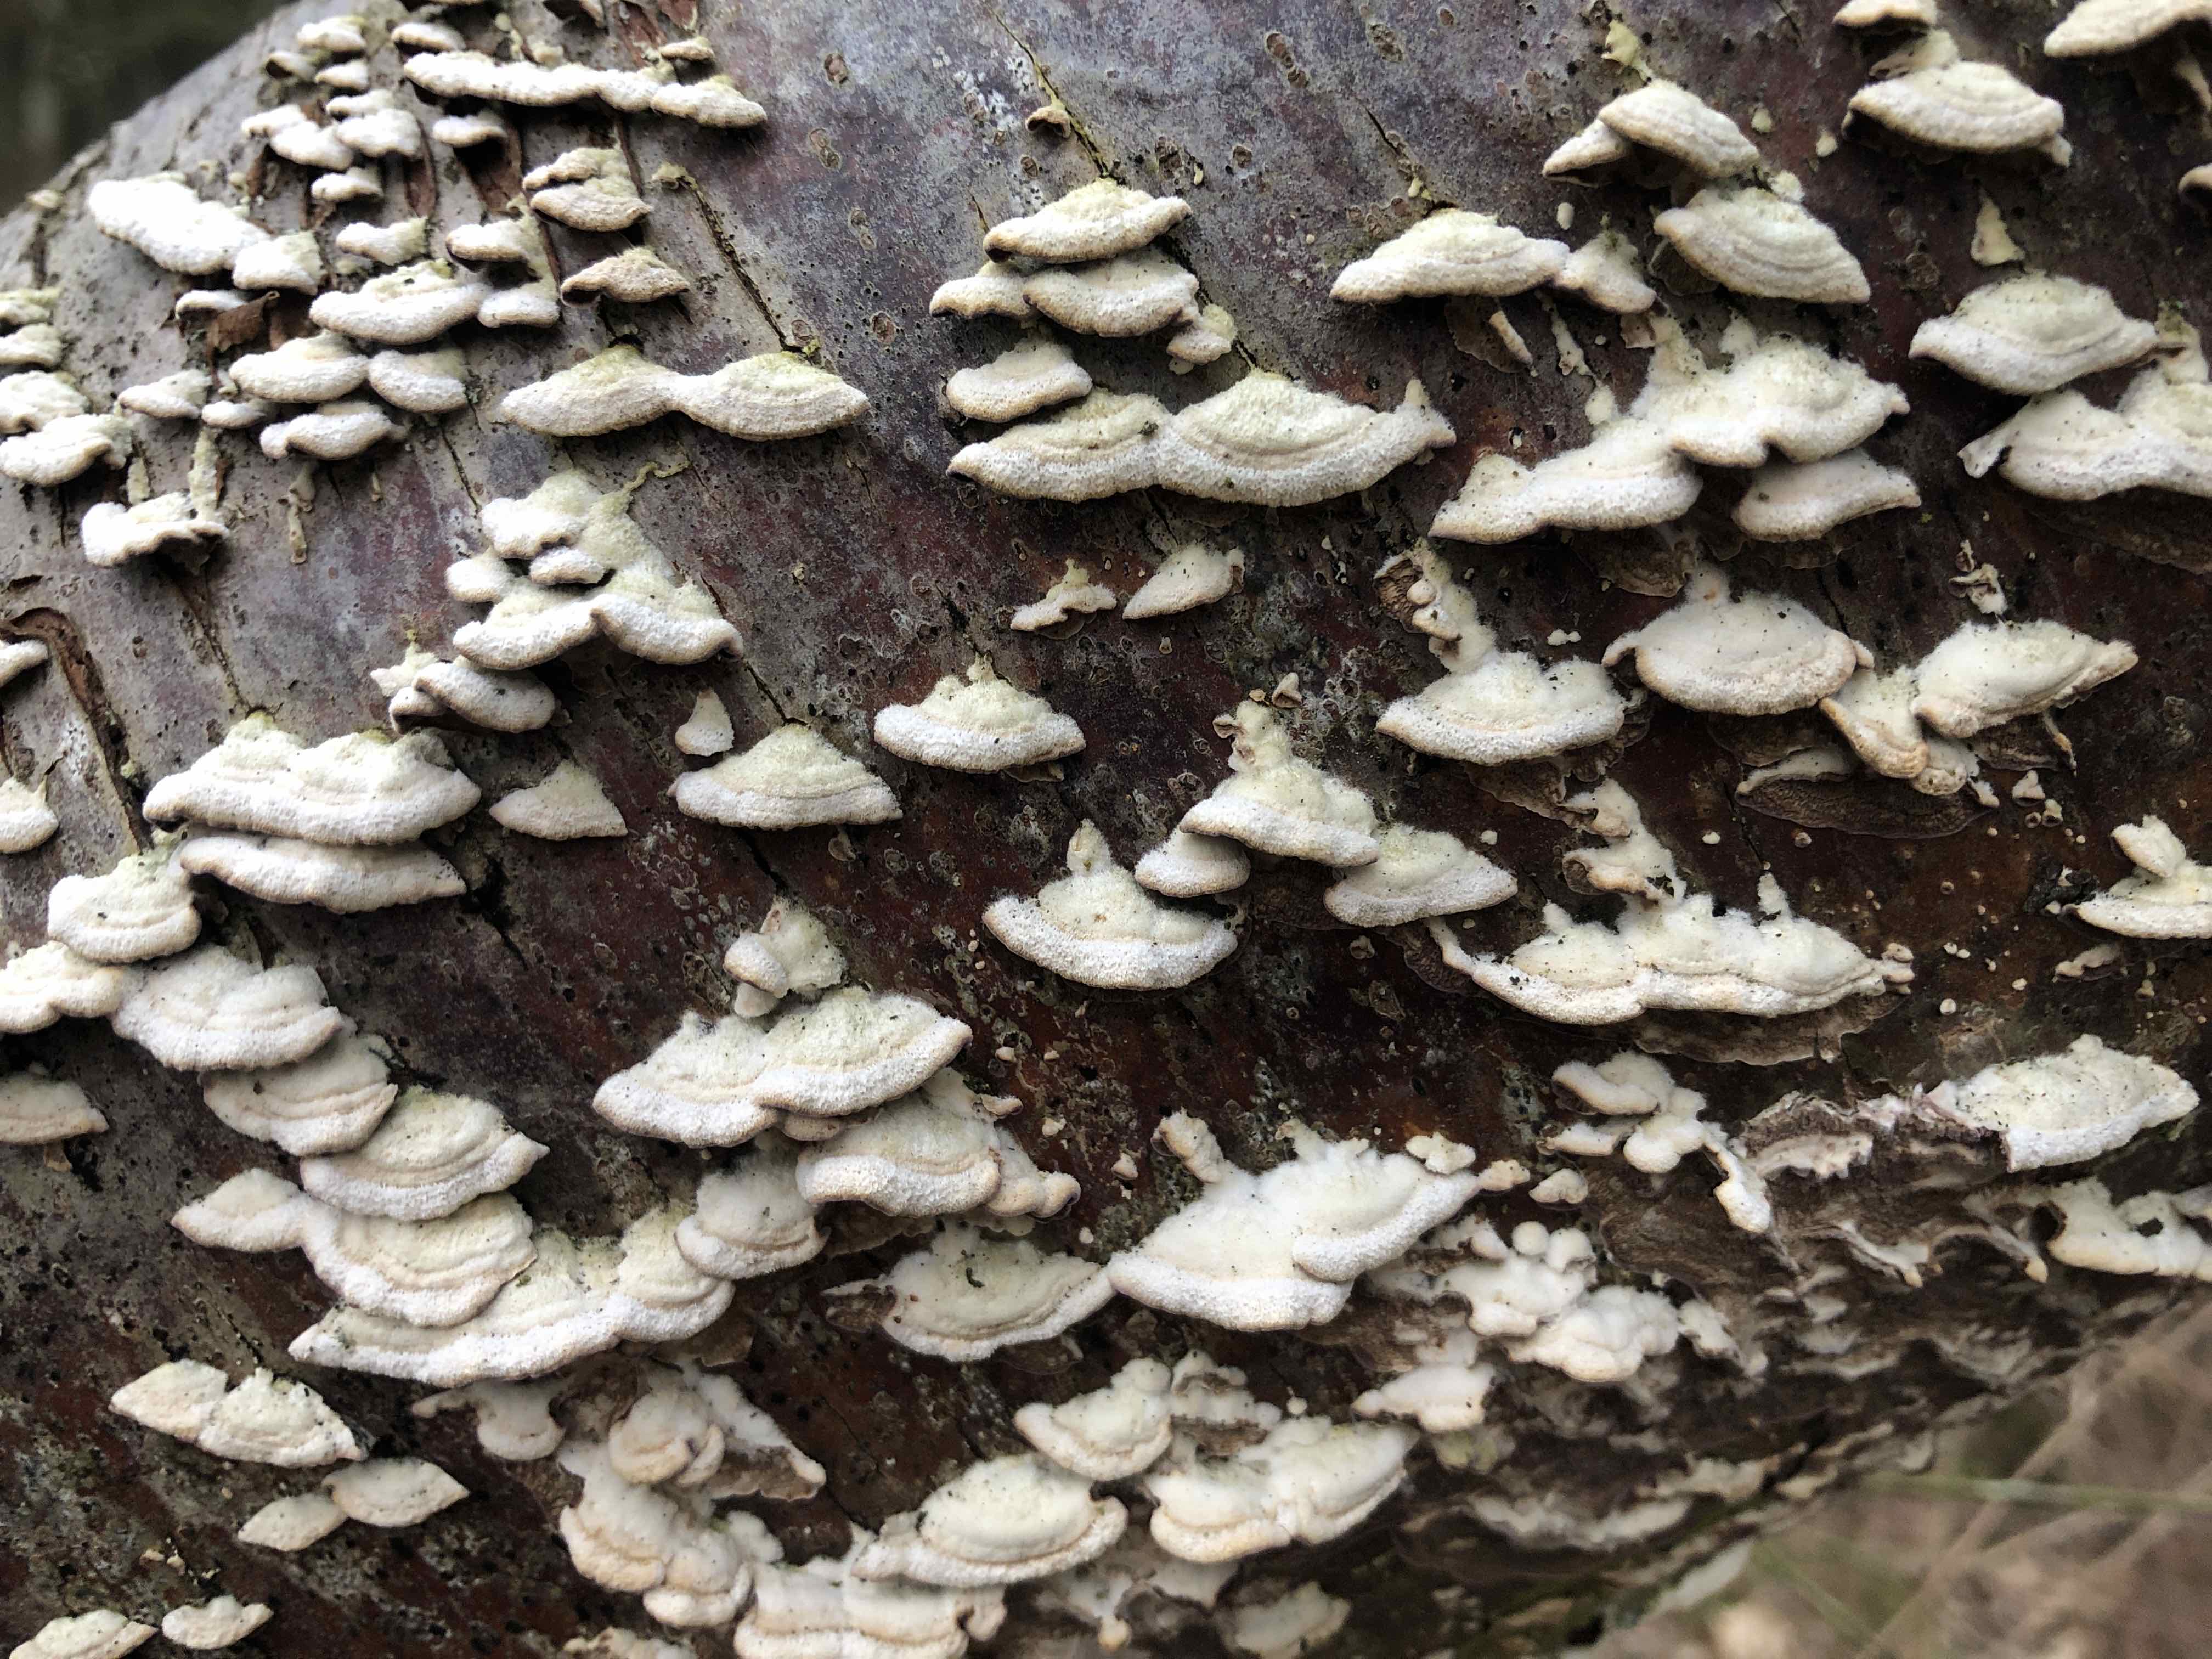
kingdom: Fungi
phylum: Basidiomycota
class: Agaricomycetes
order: Hymenochaetales
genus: Trichaptum
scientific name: Trichaptum abietinum
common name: almindelig violporesvamp
